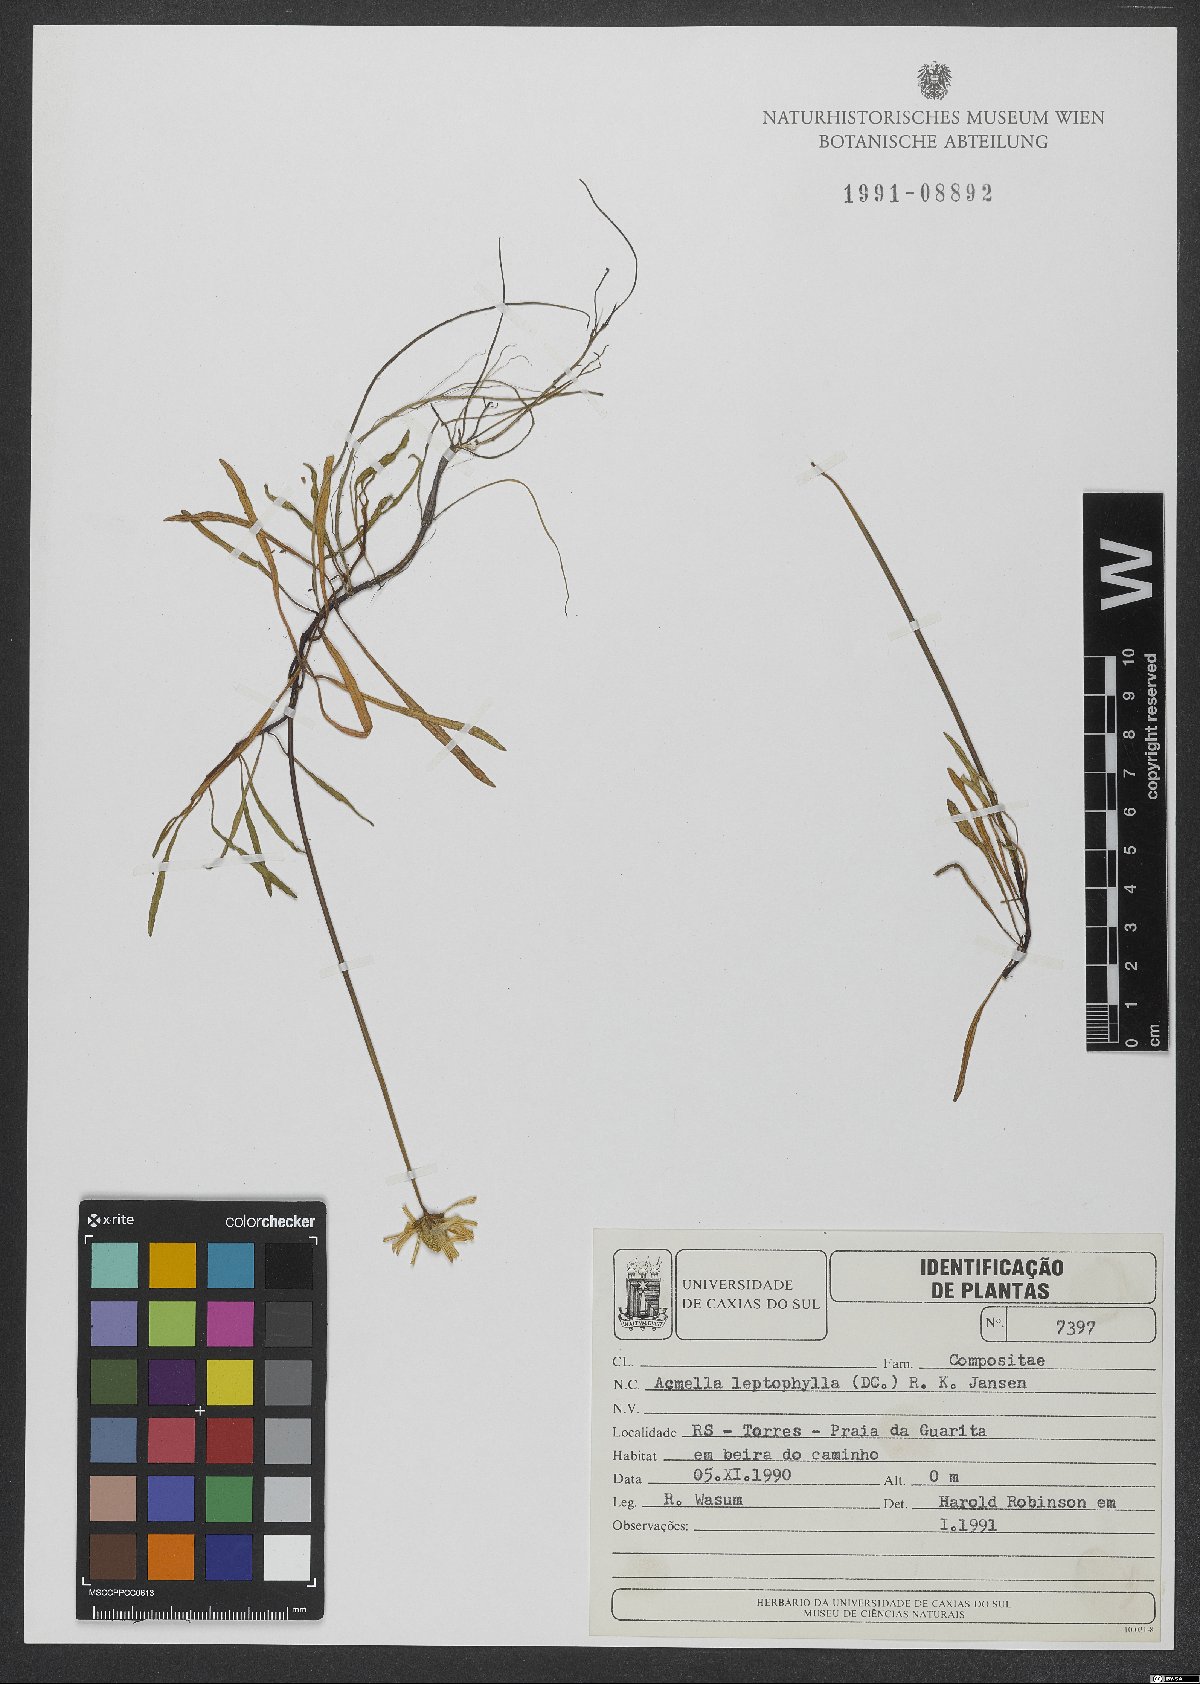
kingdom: Plantae
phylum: Tracheophyta
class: Magnoliopsida
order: Asterales
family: Asteraceae
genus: Acmella
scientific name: Acmella leptophylla
